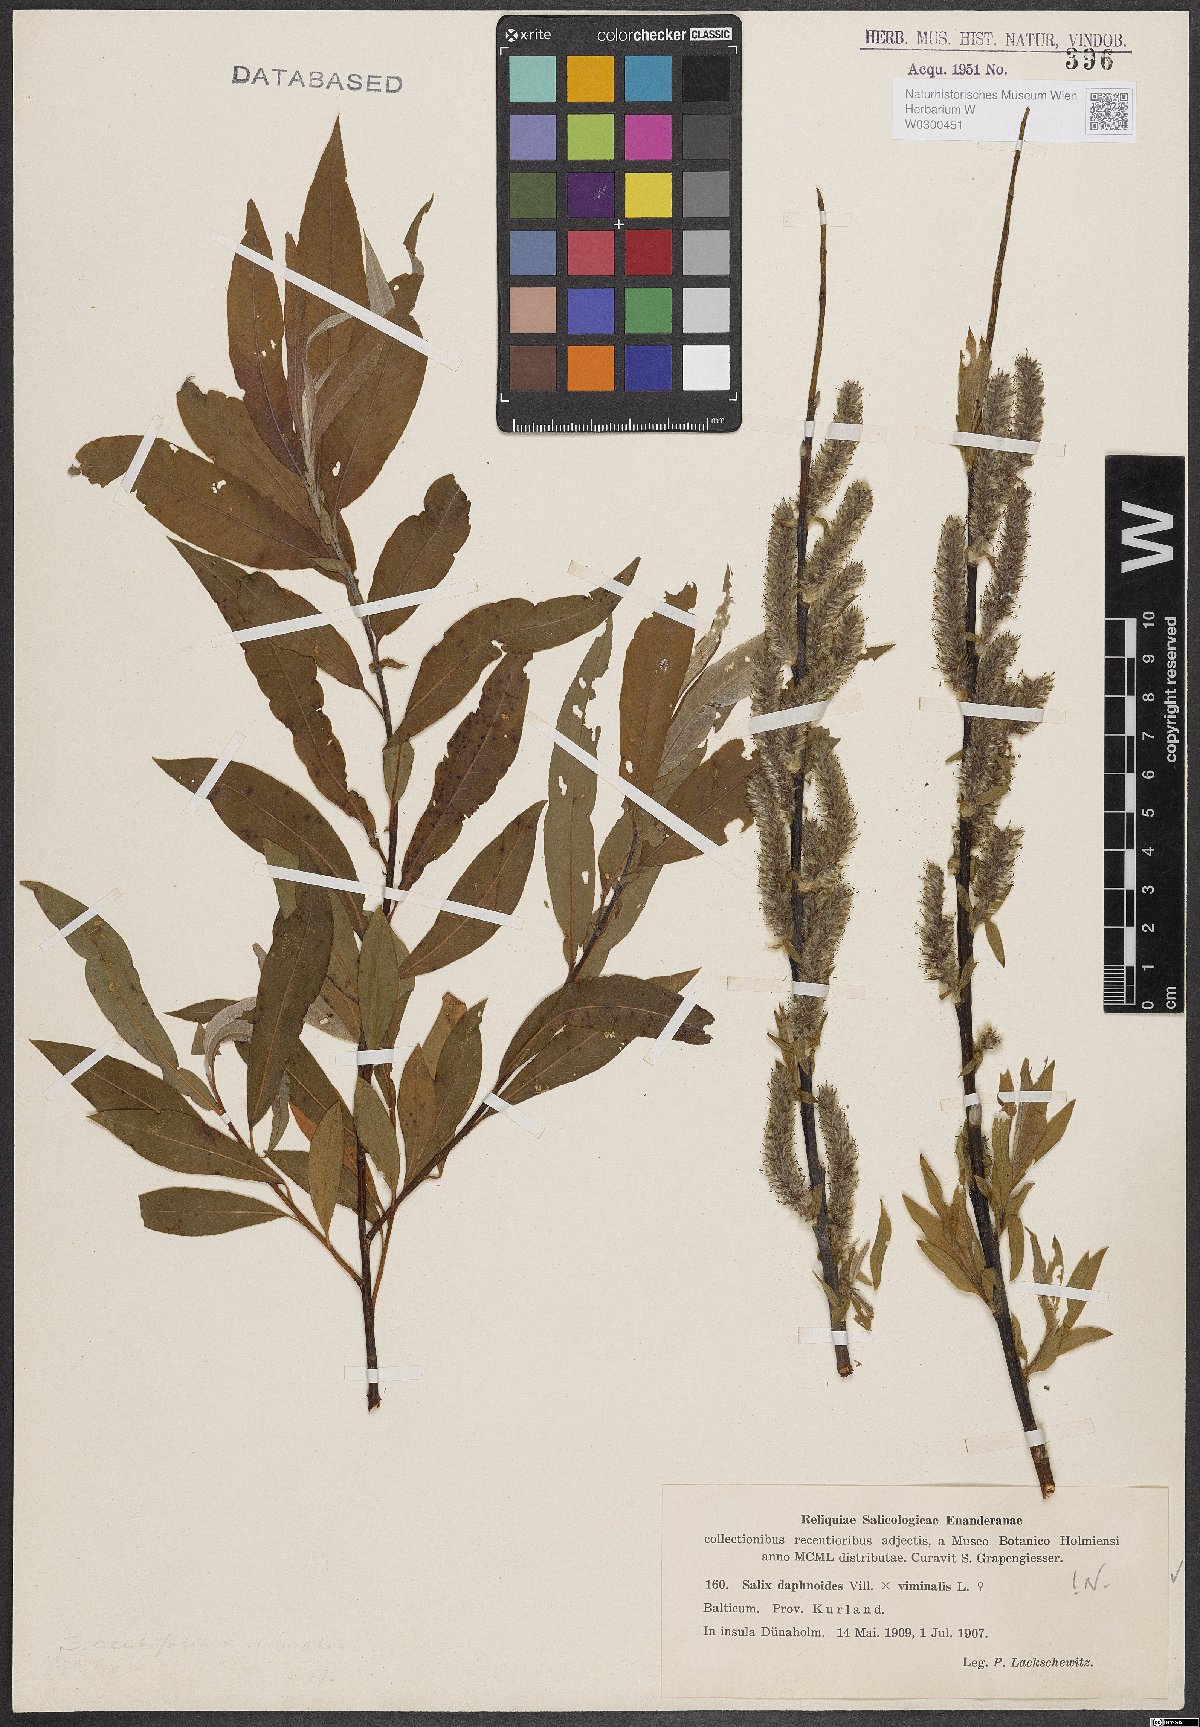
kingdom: Plantae
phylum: Tracheophyta
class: Magnoliopsida
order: Malpighiales
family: Salicaceae
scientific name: Salicaceae
